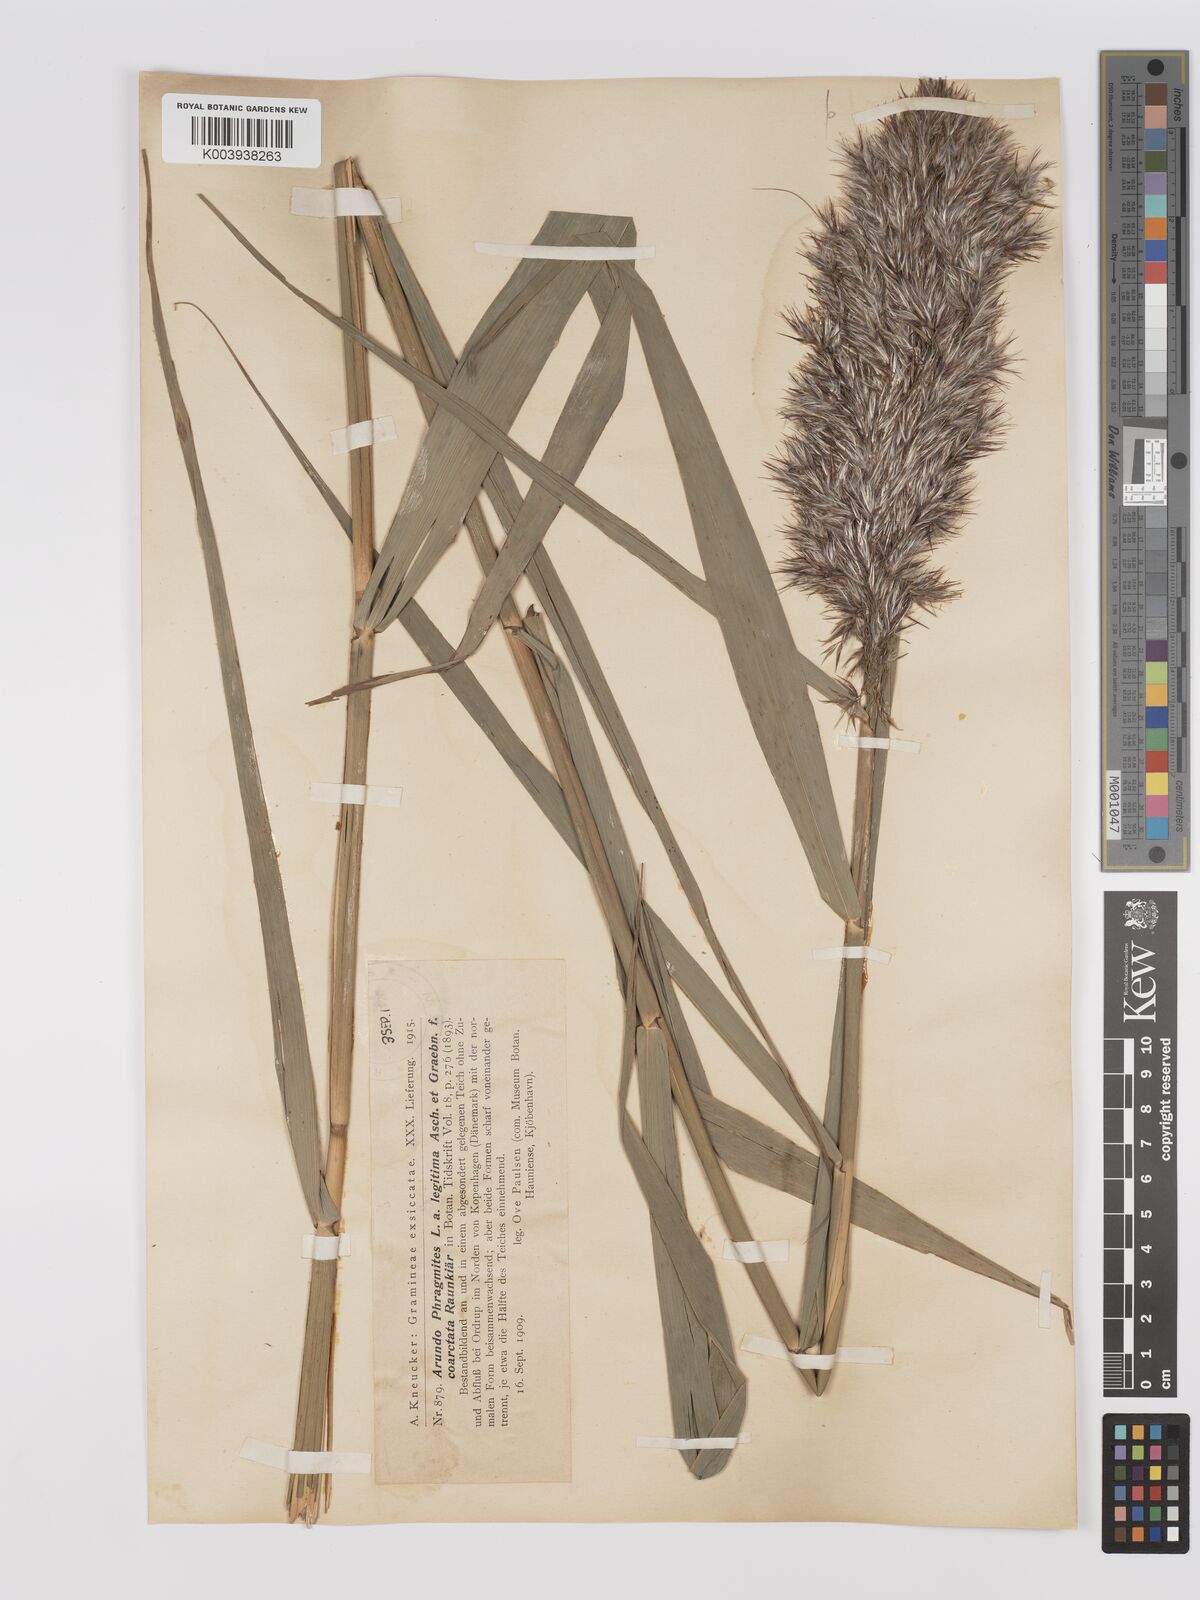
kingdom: Plantae
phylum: Tracheophyta
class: Liliopsida
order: Poales
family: Poaceae
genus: Phragmites
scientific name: Phragmites australis
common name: Common reed
